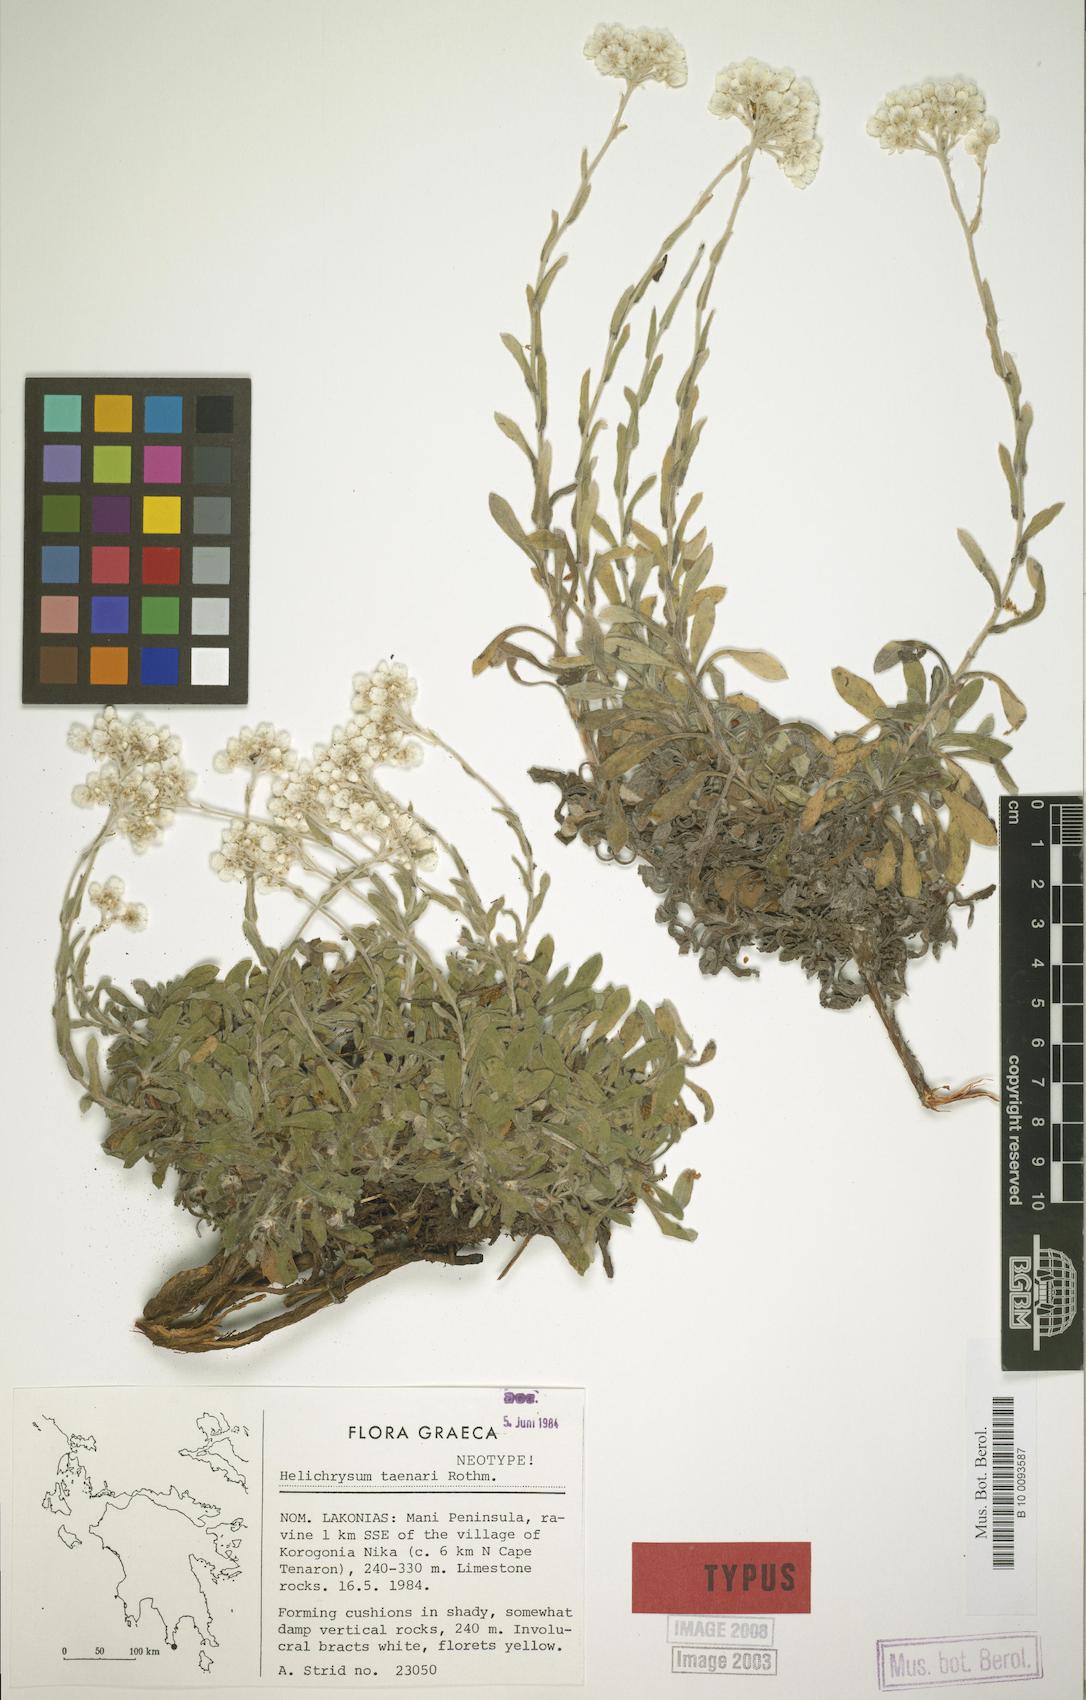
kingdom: Plantae
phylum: Tracheophyta
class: Magnoliopsida
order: Asterales
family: Asteraceae
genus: Helichrysum
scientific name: Helichrysum taenari
